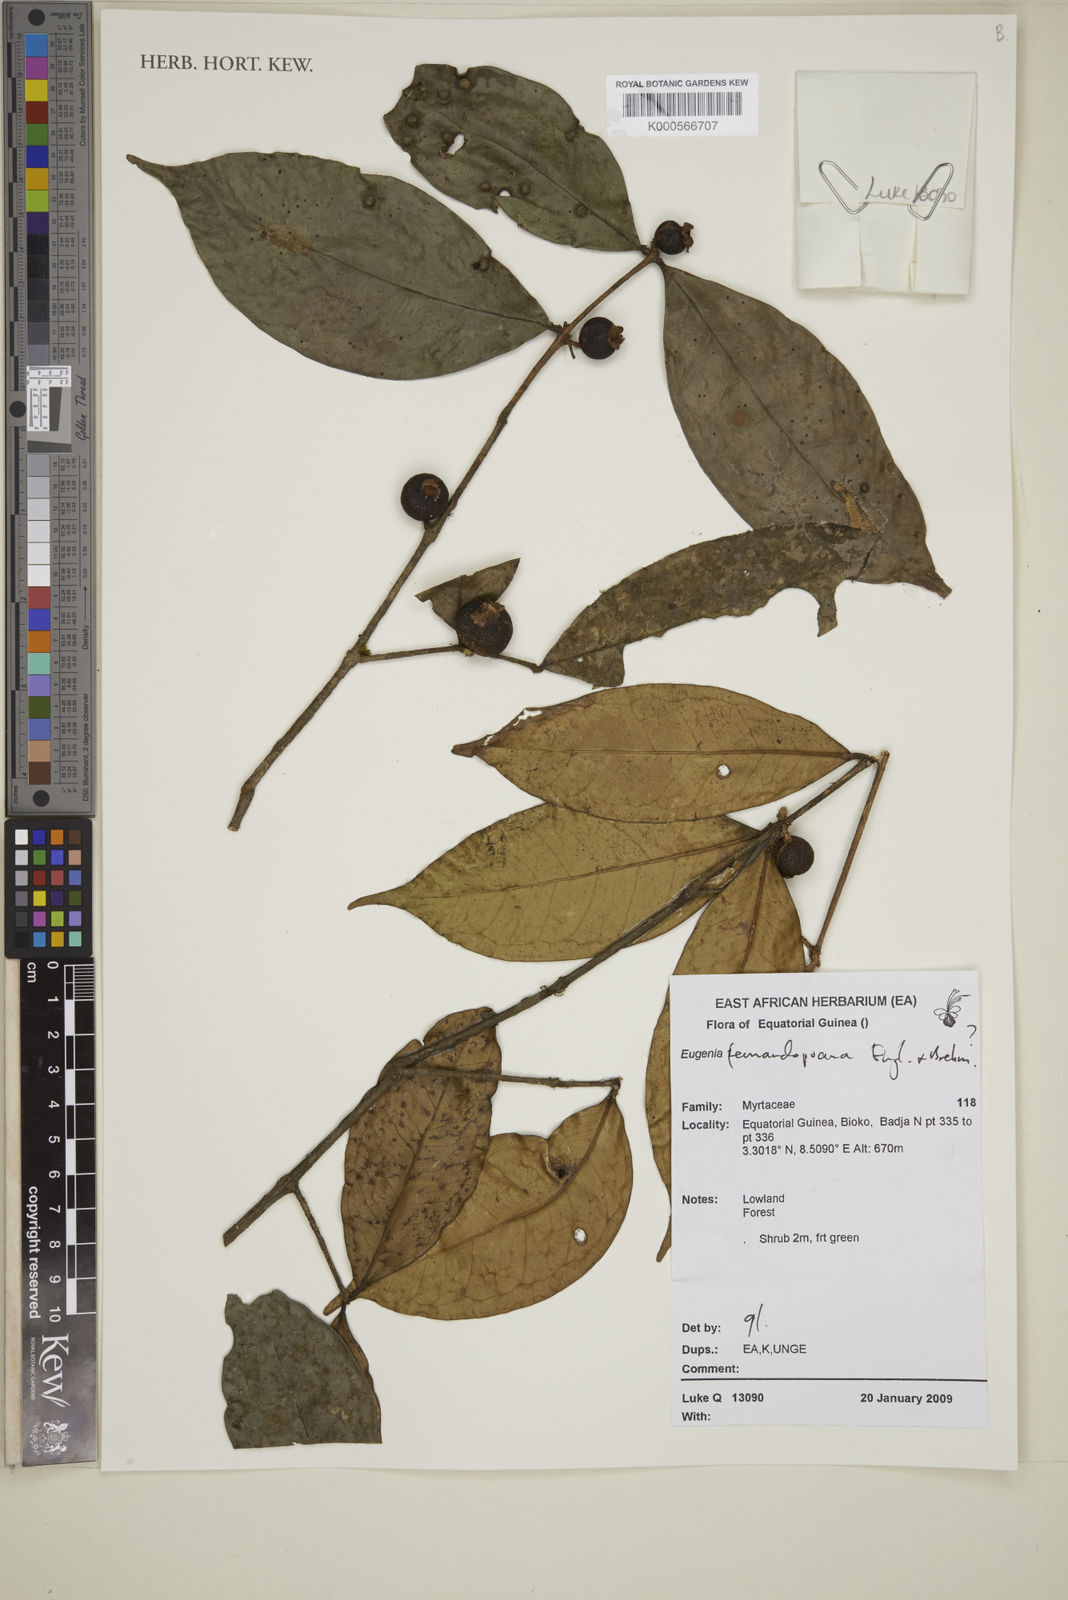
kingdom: Plantae
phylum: Tracheophyta
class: Magnoliopsida
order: Myrtales
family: Myrtaceae
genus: Eugenia
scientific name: Eugenia fernandopoana
